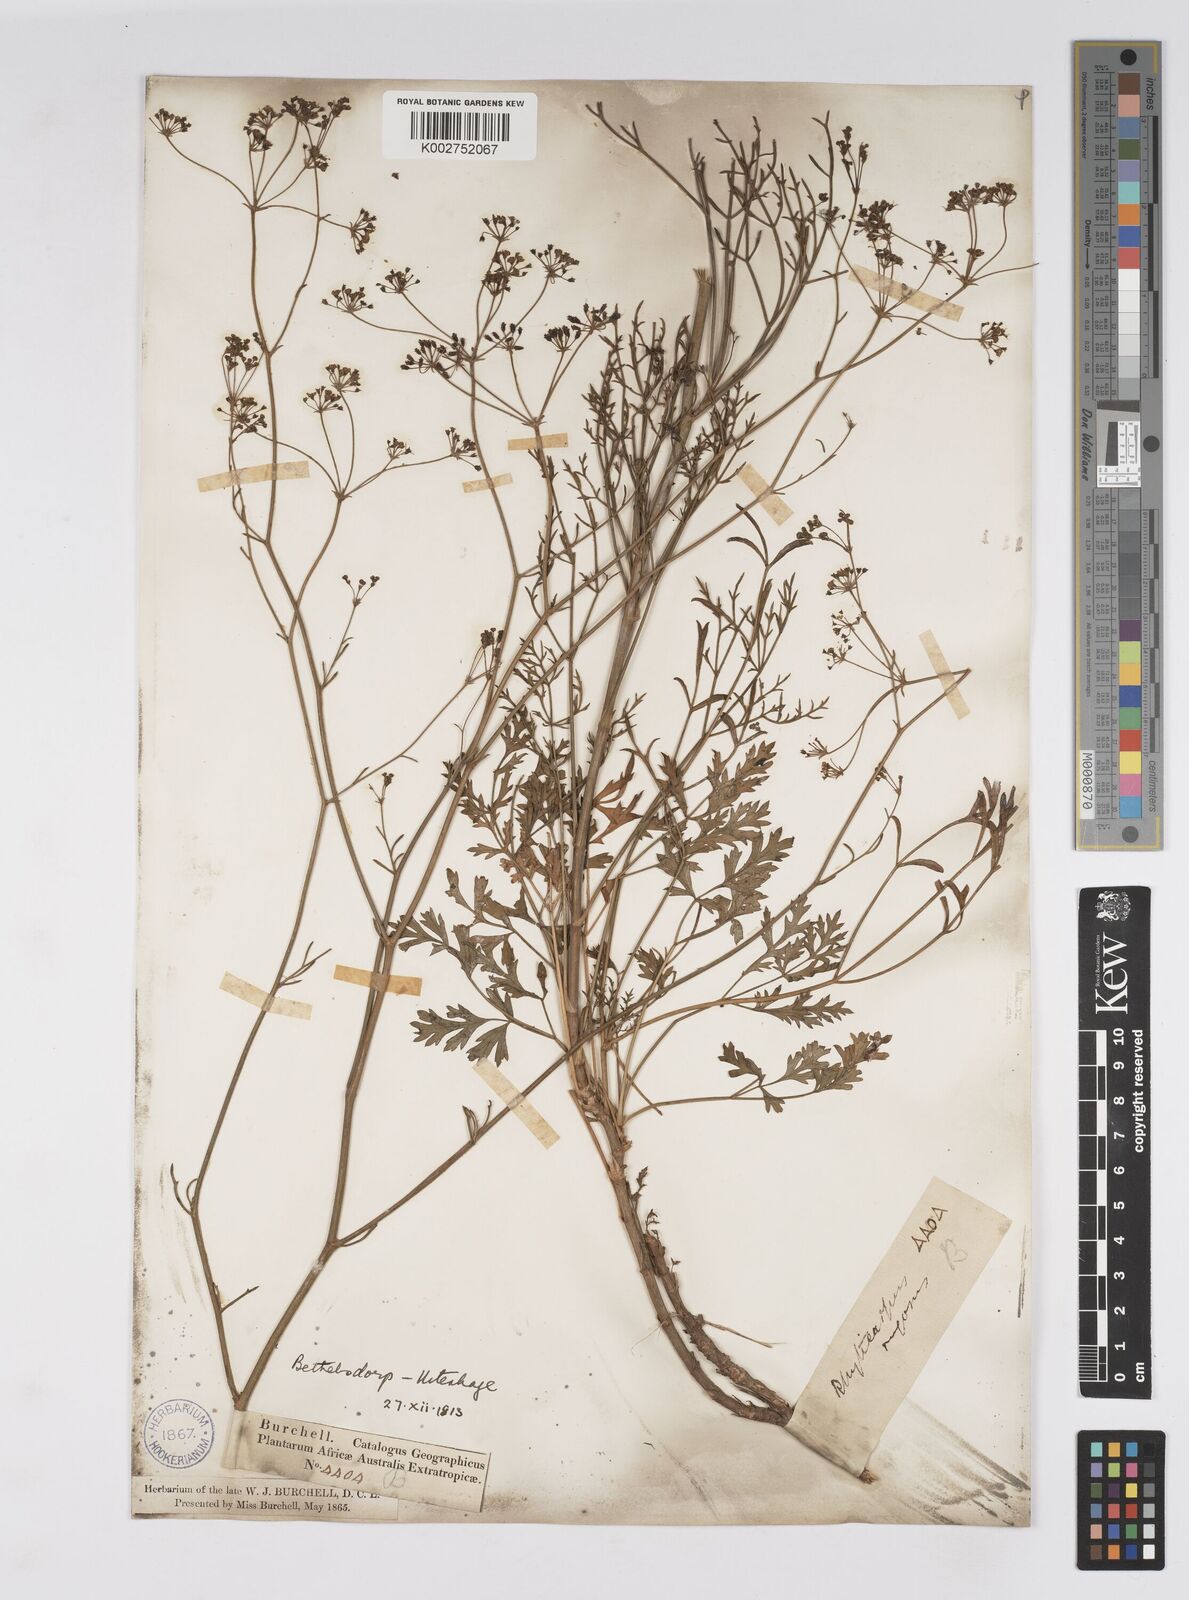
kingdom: Plantae
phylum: Tracheophyta
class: Magnoliopsida
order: Apiales
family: Apiaceae
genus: Anginon
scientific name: Anginon rugosum
